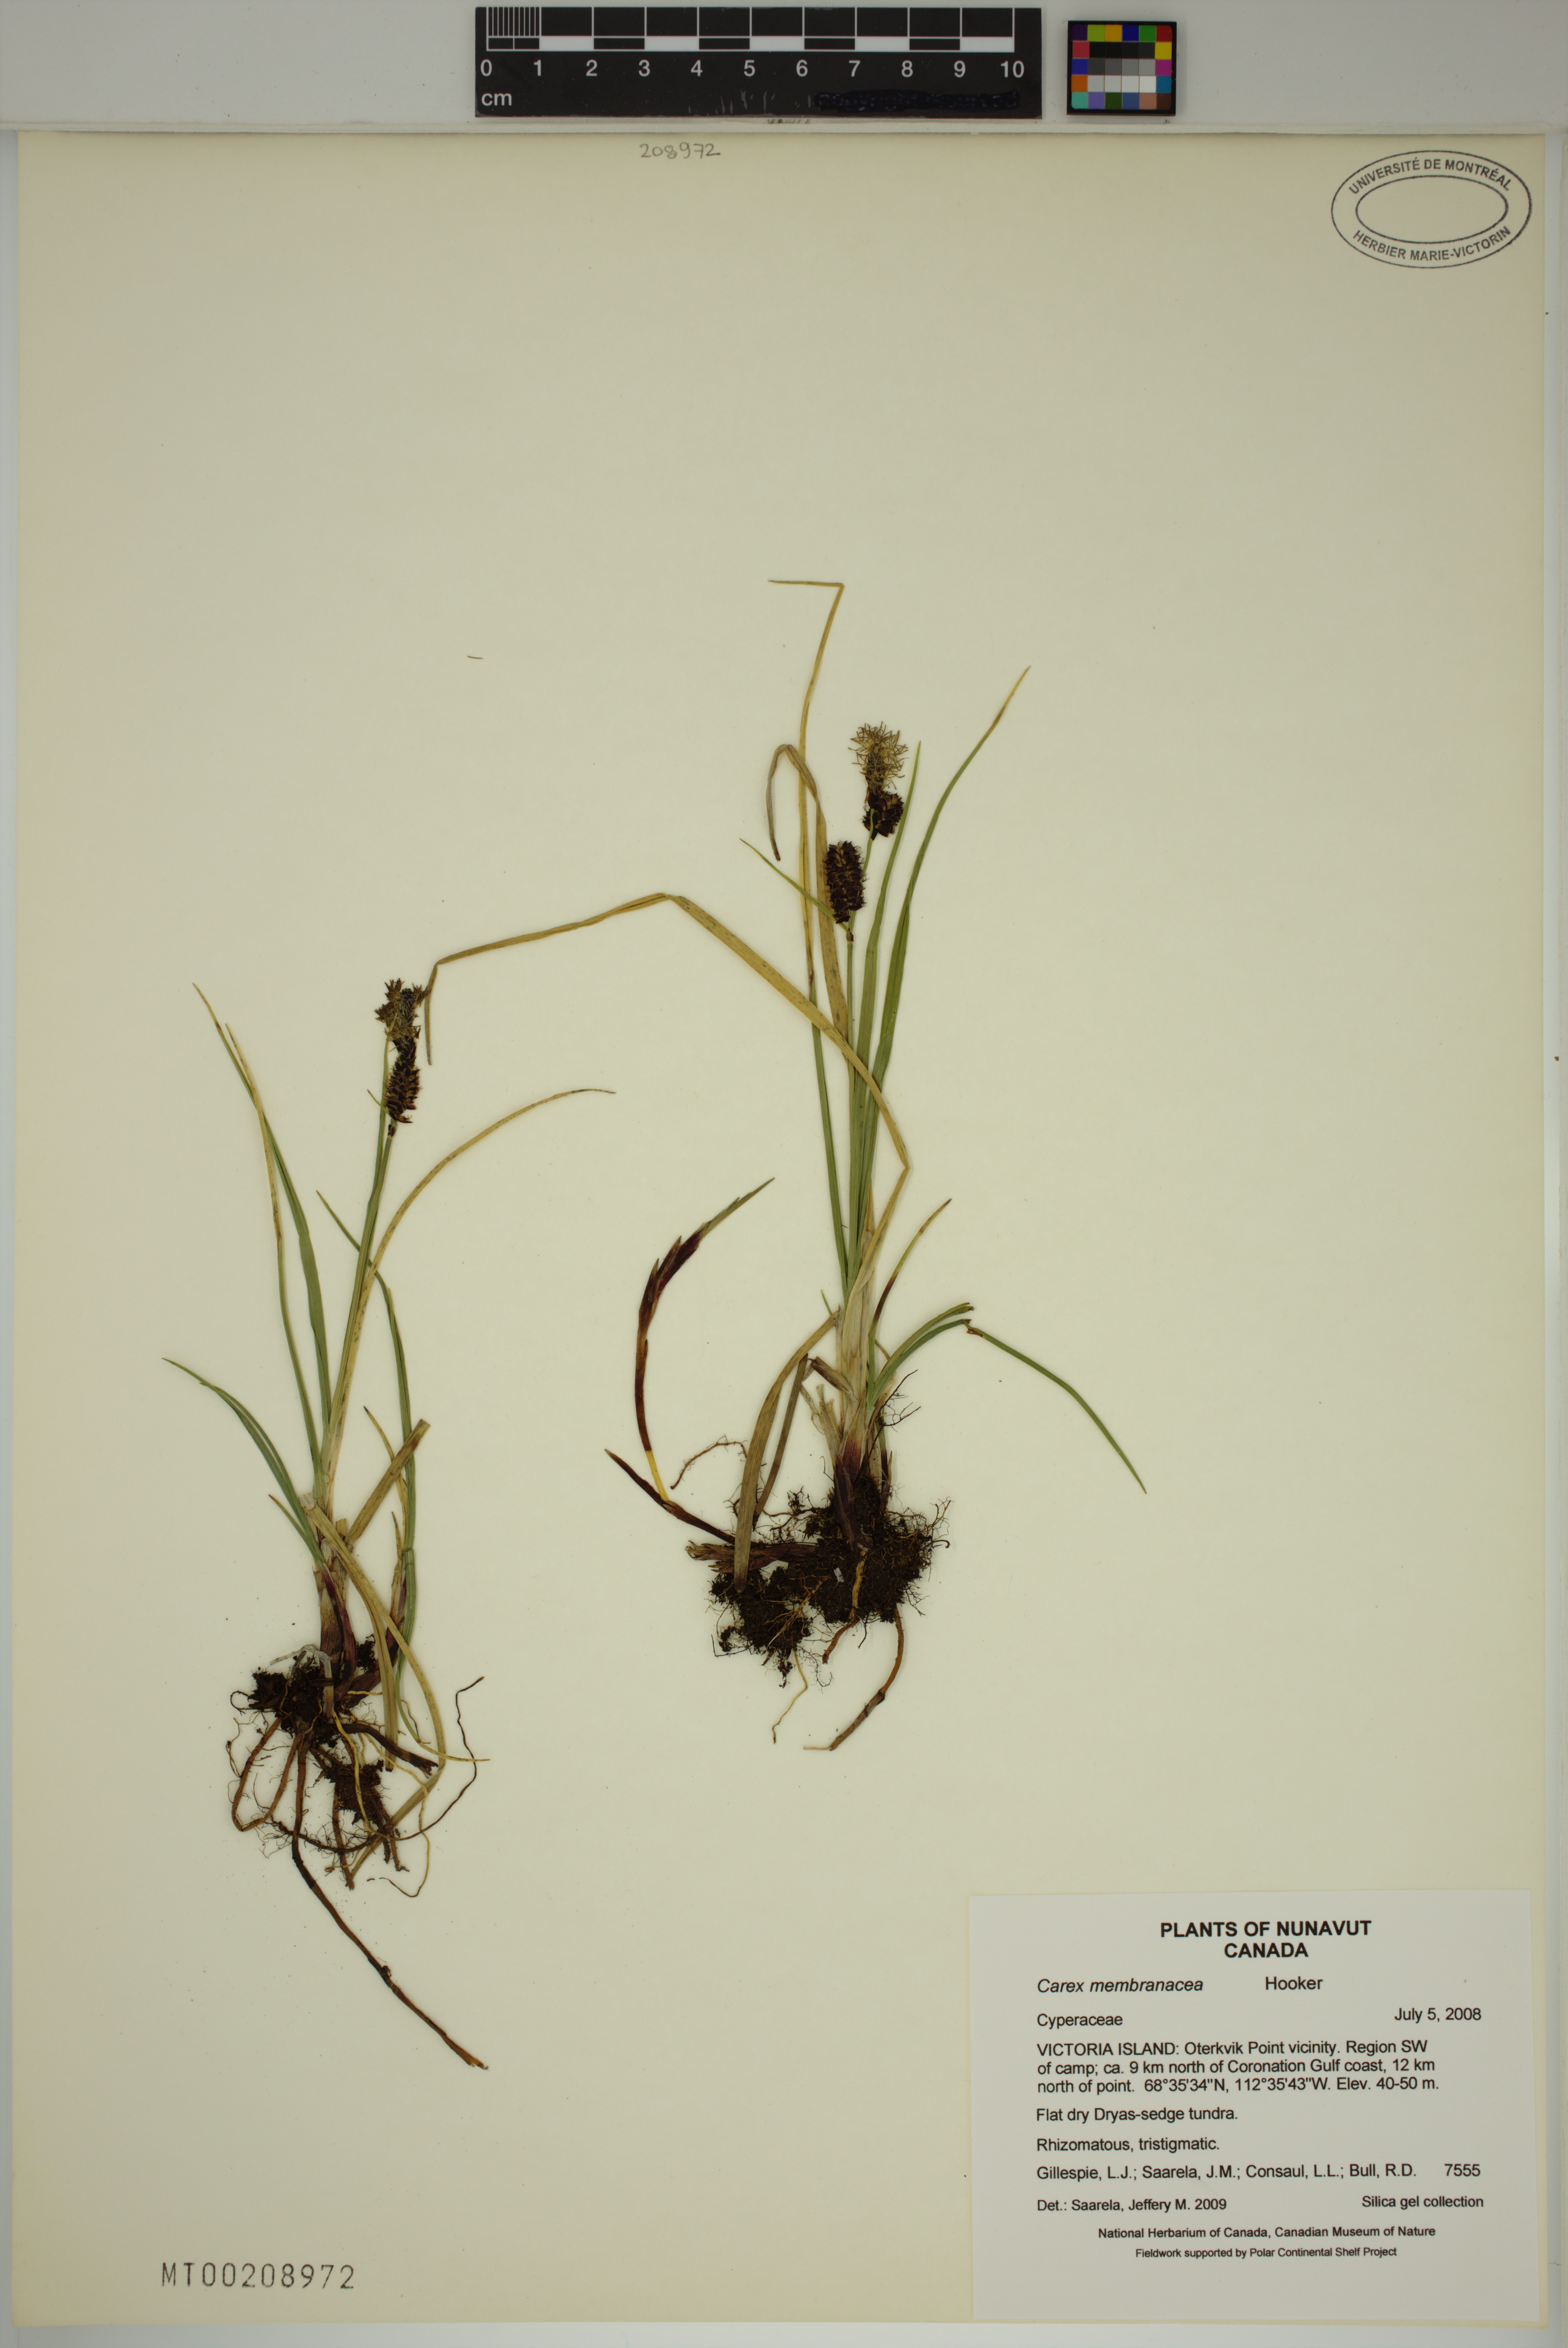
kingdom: Plantae
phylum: Tracheophyta
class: Liliopsida
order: Poales
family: Cyperaceae
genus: Carex
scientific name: Carex membranacea
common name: Fragile sedge
